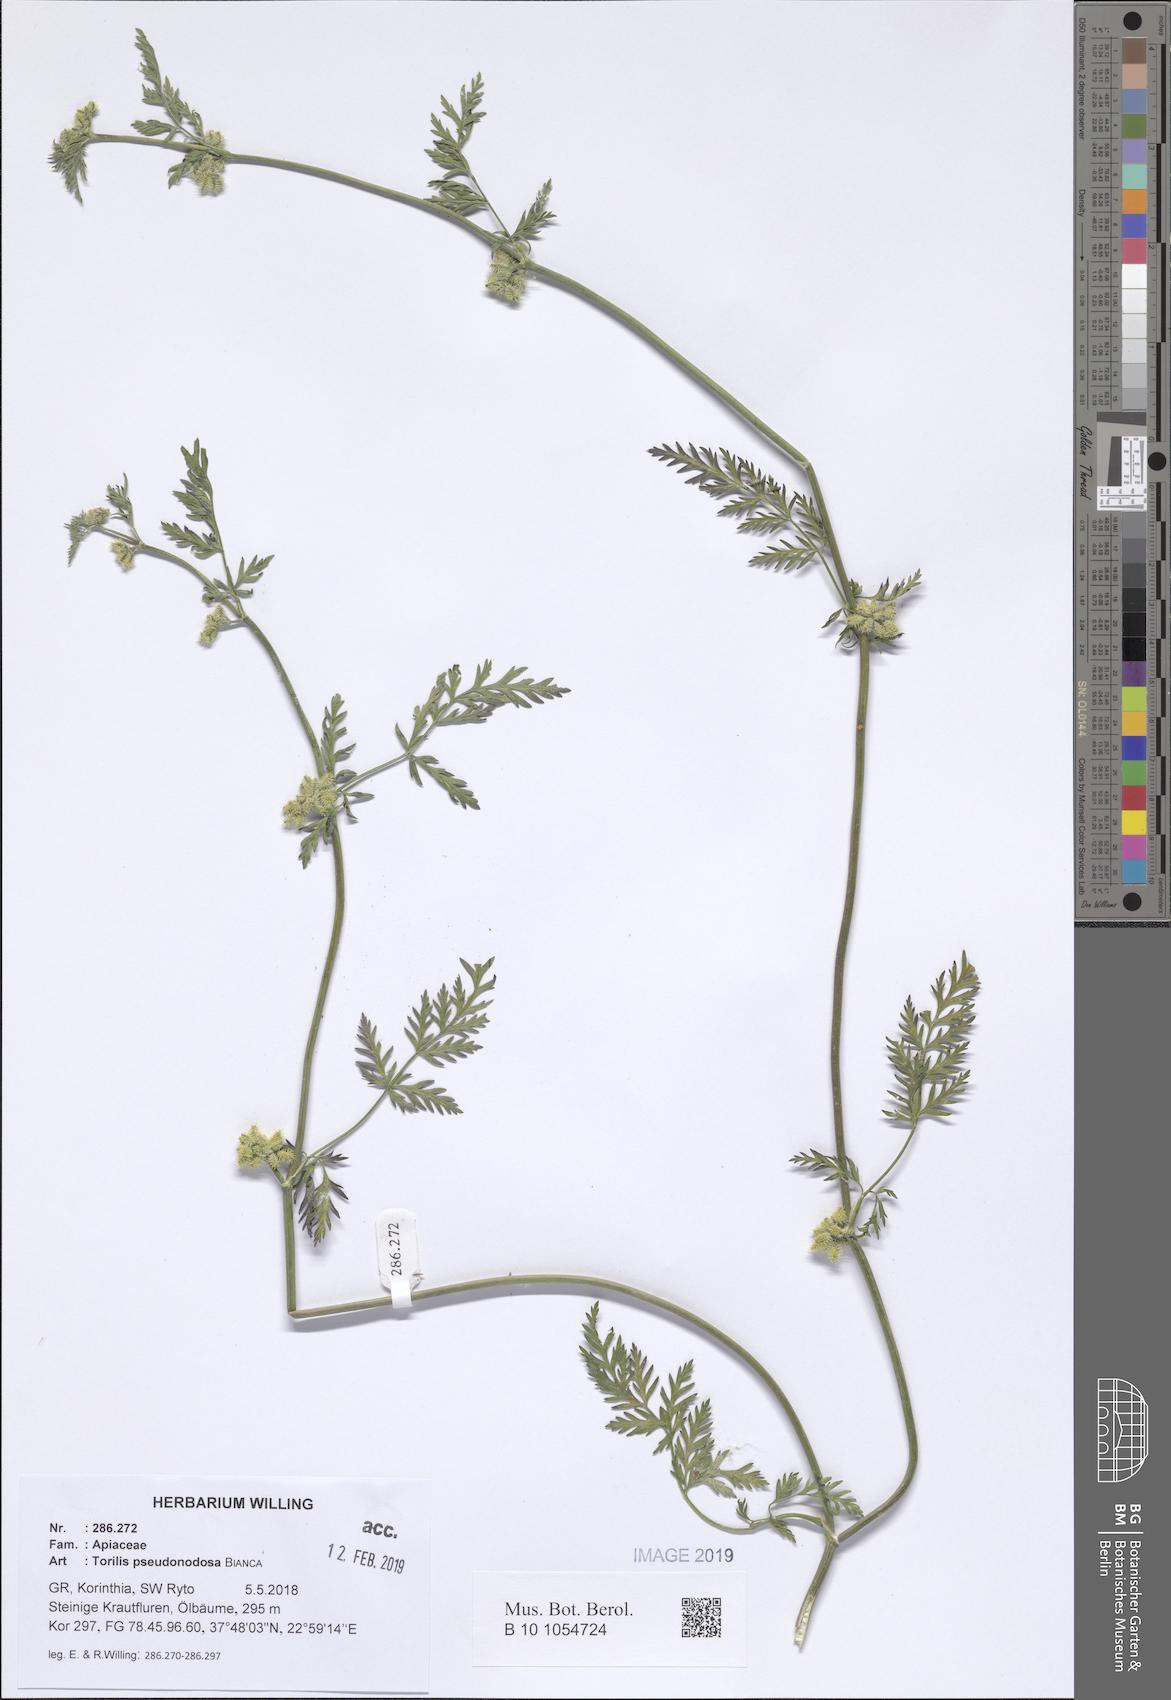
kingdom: Plantae
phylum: Tracheophyta
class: Magnoliopsida
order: Apiales
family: Apiaceae
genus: Torilis
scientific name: Torilis pseudonodosa
